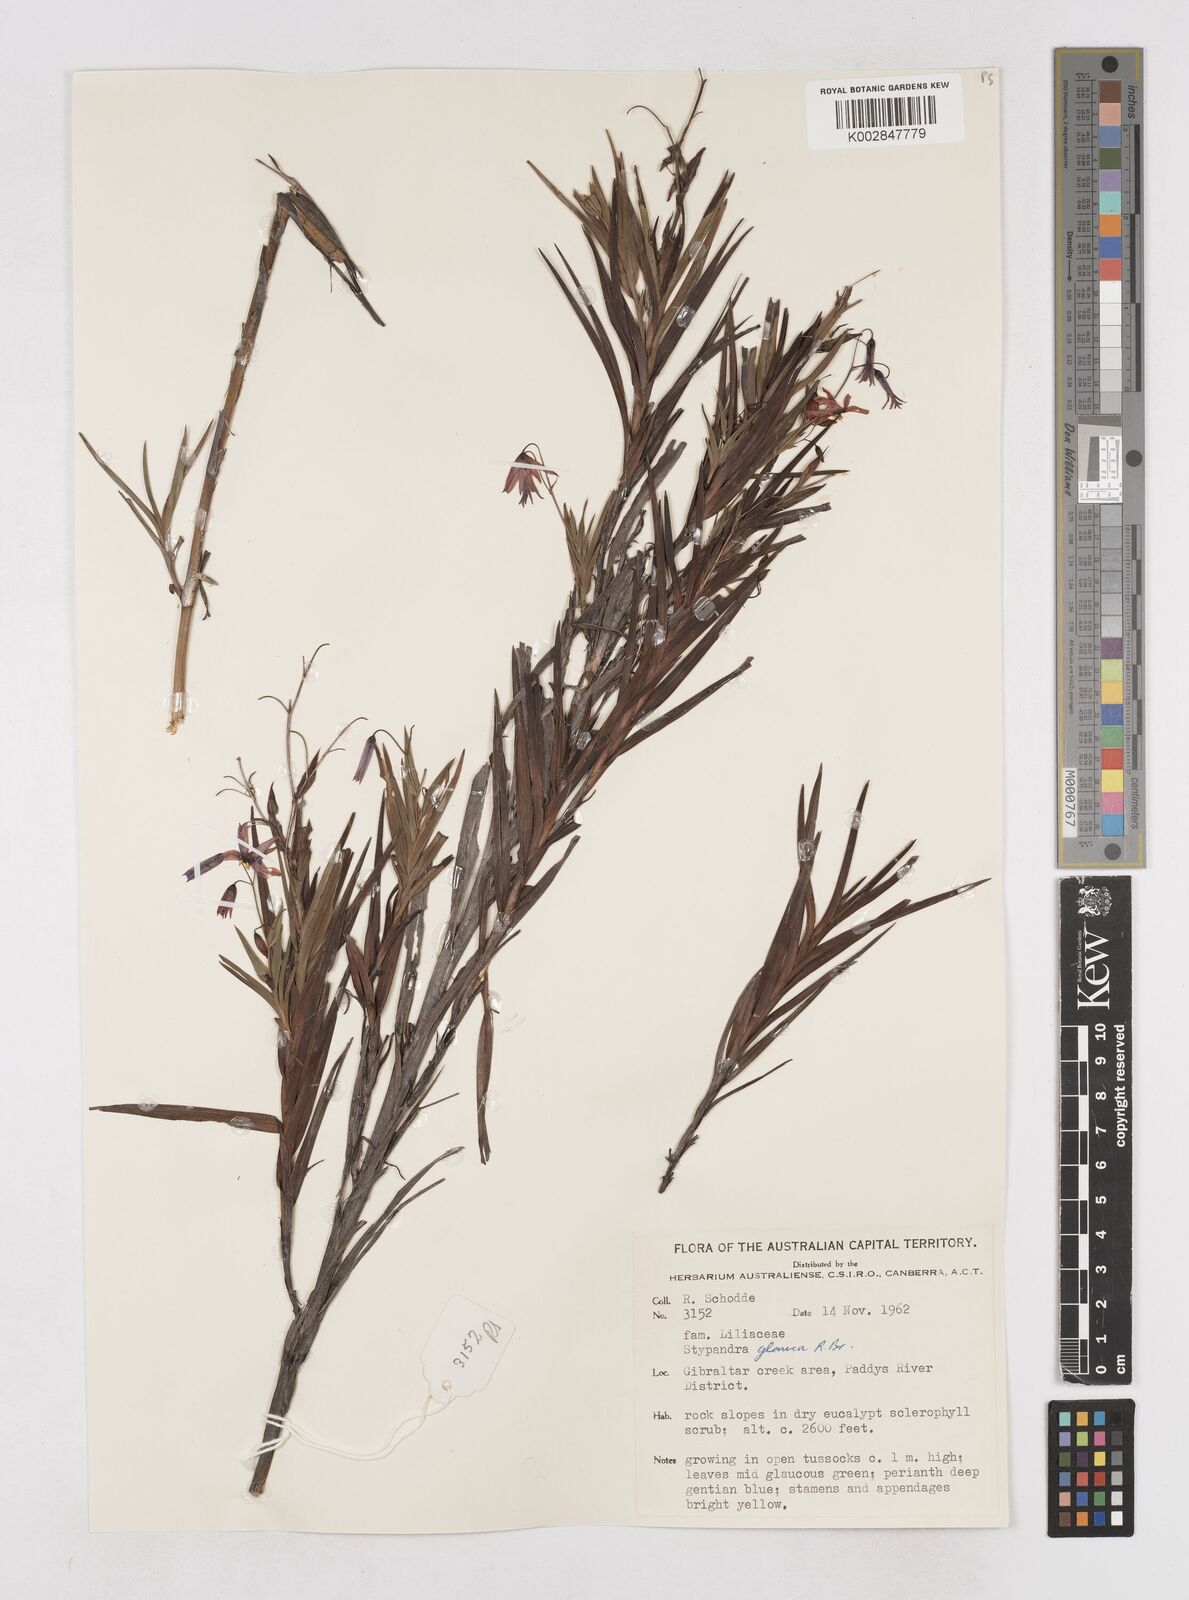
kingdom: Plantae
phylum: Tracheophyta
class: Liliopsida
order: Asparagales
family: Asphodelaceae
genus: Stypandra
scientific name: Stypandra glauca
